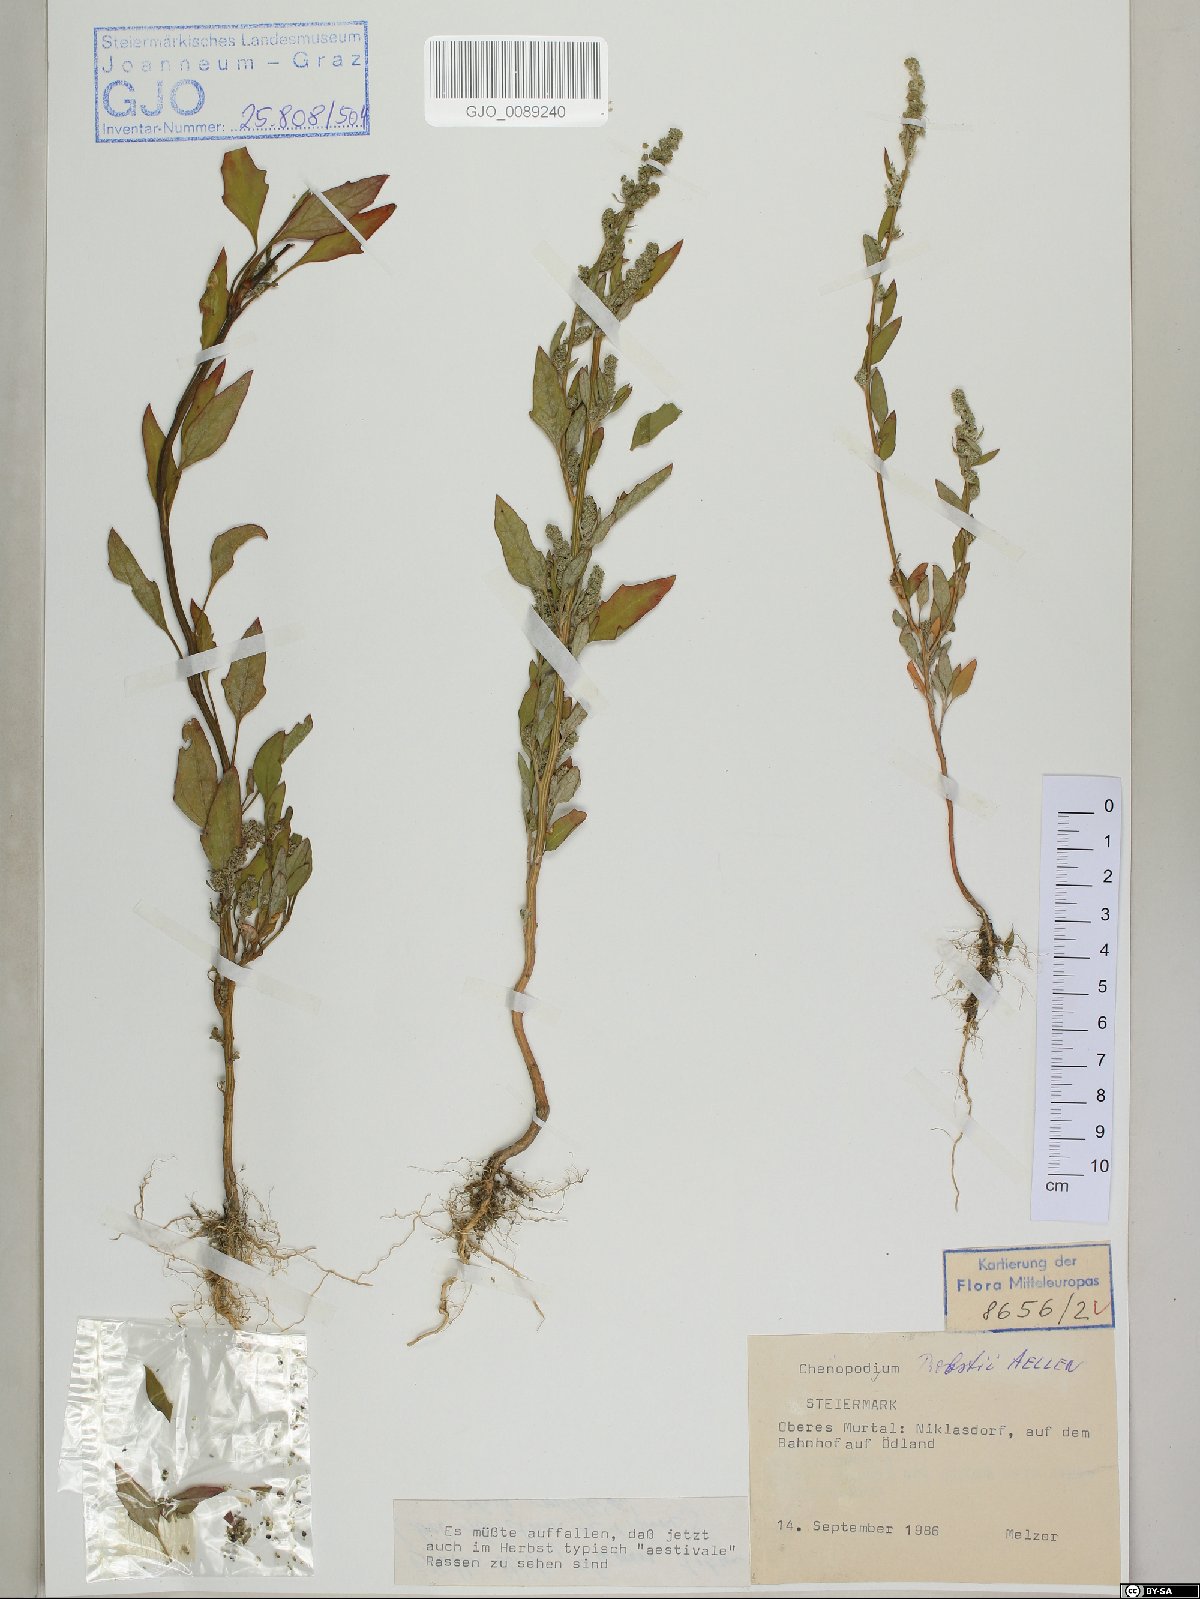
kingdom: Plantae
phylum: Tracheophyta
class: Magnoliopsida
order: Caryophyllales
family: Amaranthaceae
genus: Chenopodium
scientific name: Chenopodium probstii
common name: Probst's goosefoot
